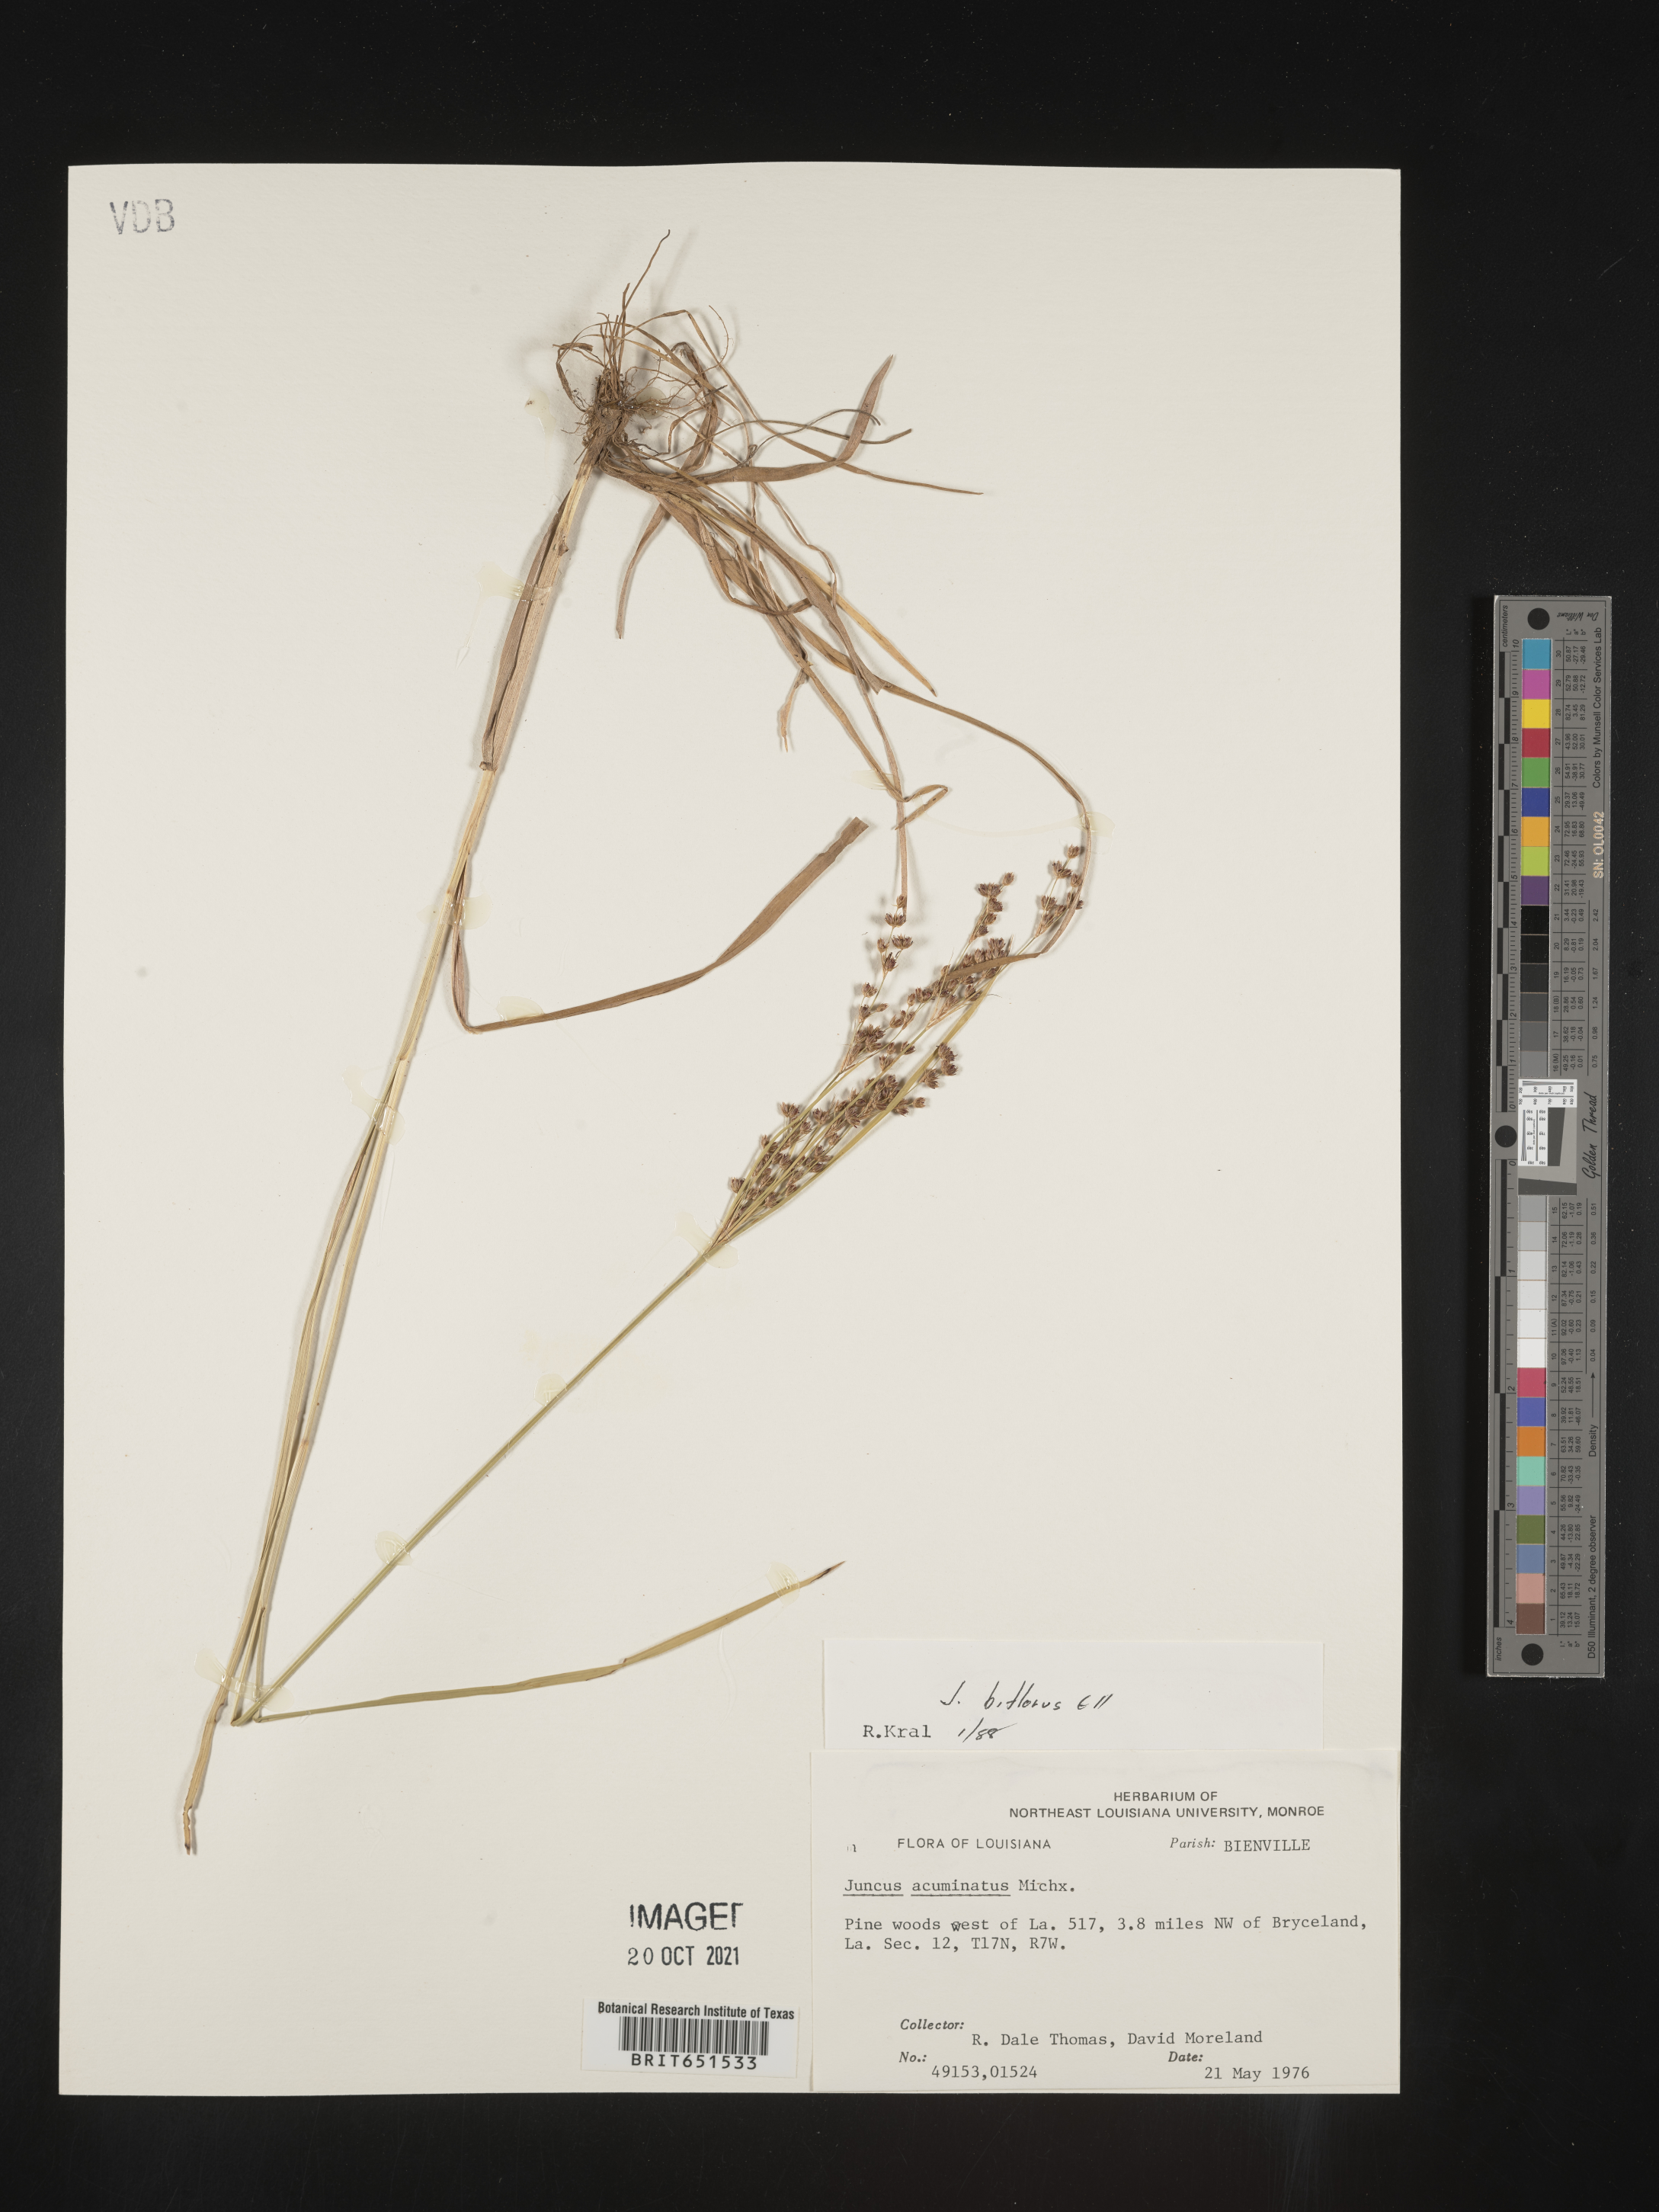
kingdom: Plantae
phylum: Tracheophyta
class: Liliopsida
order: Poales
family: Juncaceae
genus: Juncus
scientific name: Juncus biflorus
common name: Two-flowered rush
